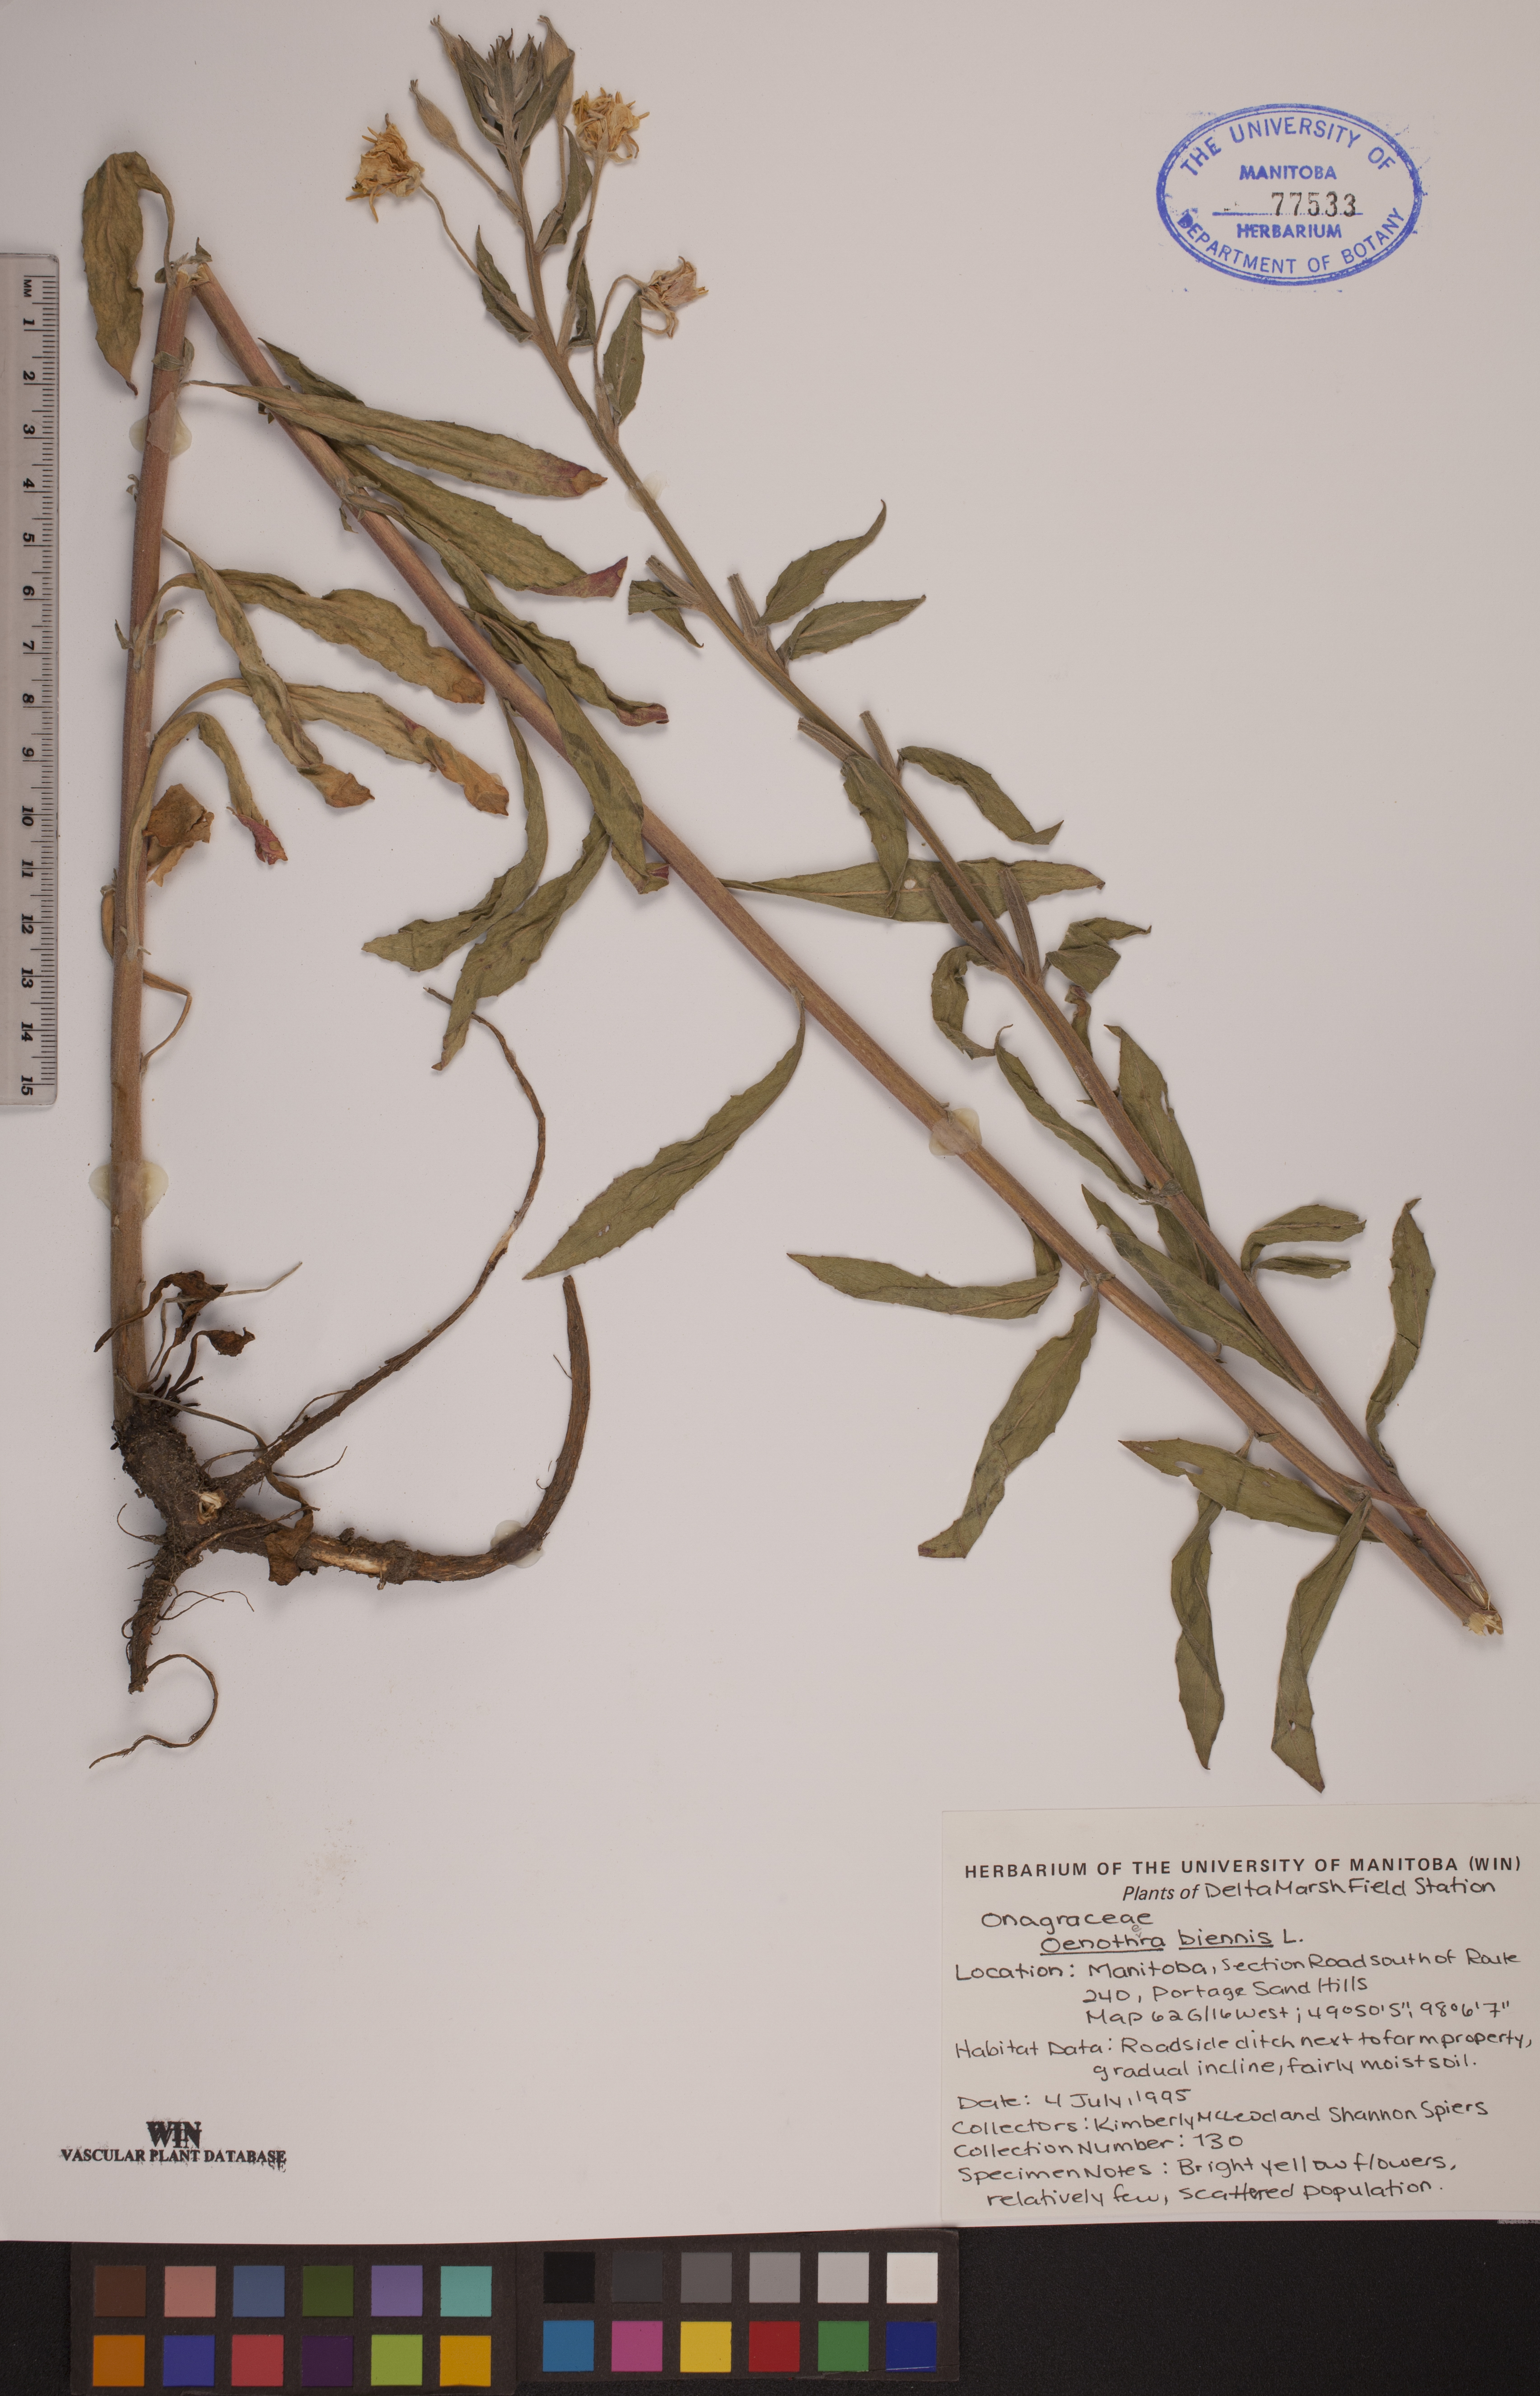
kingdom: Plantae
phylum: Tracheophyta
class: Magnoliopsida
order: Myrtales
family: Onagraceae
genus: Oenothera
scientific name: Oenothera biennis
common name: Common evening-primrose
